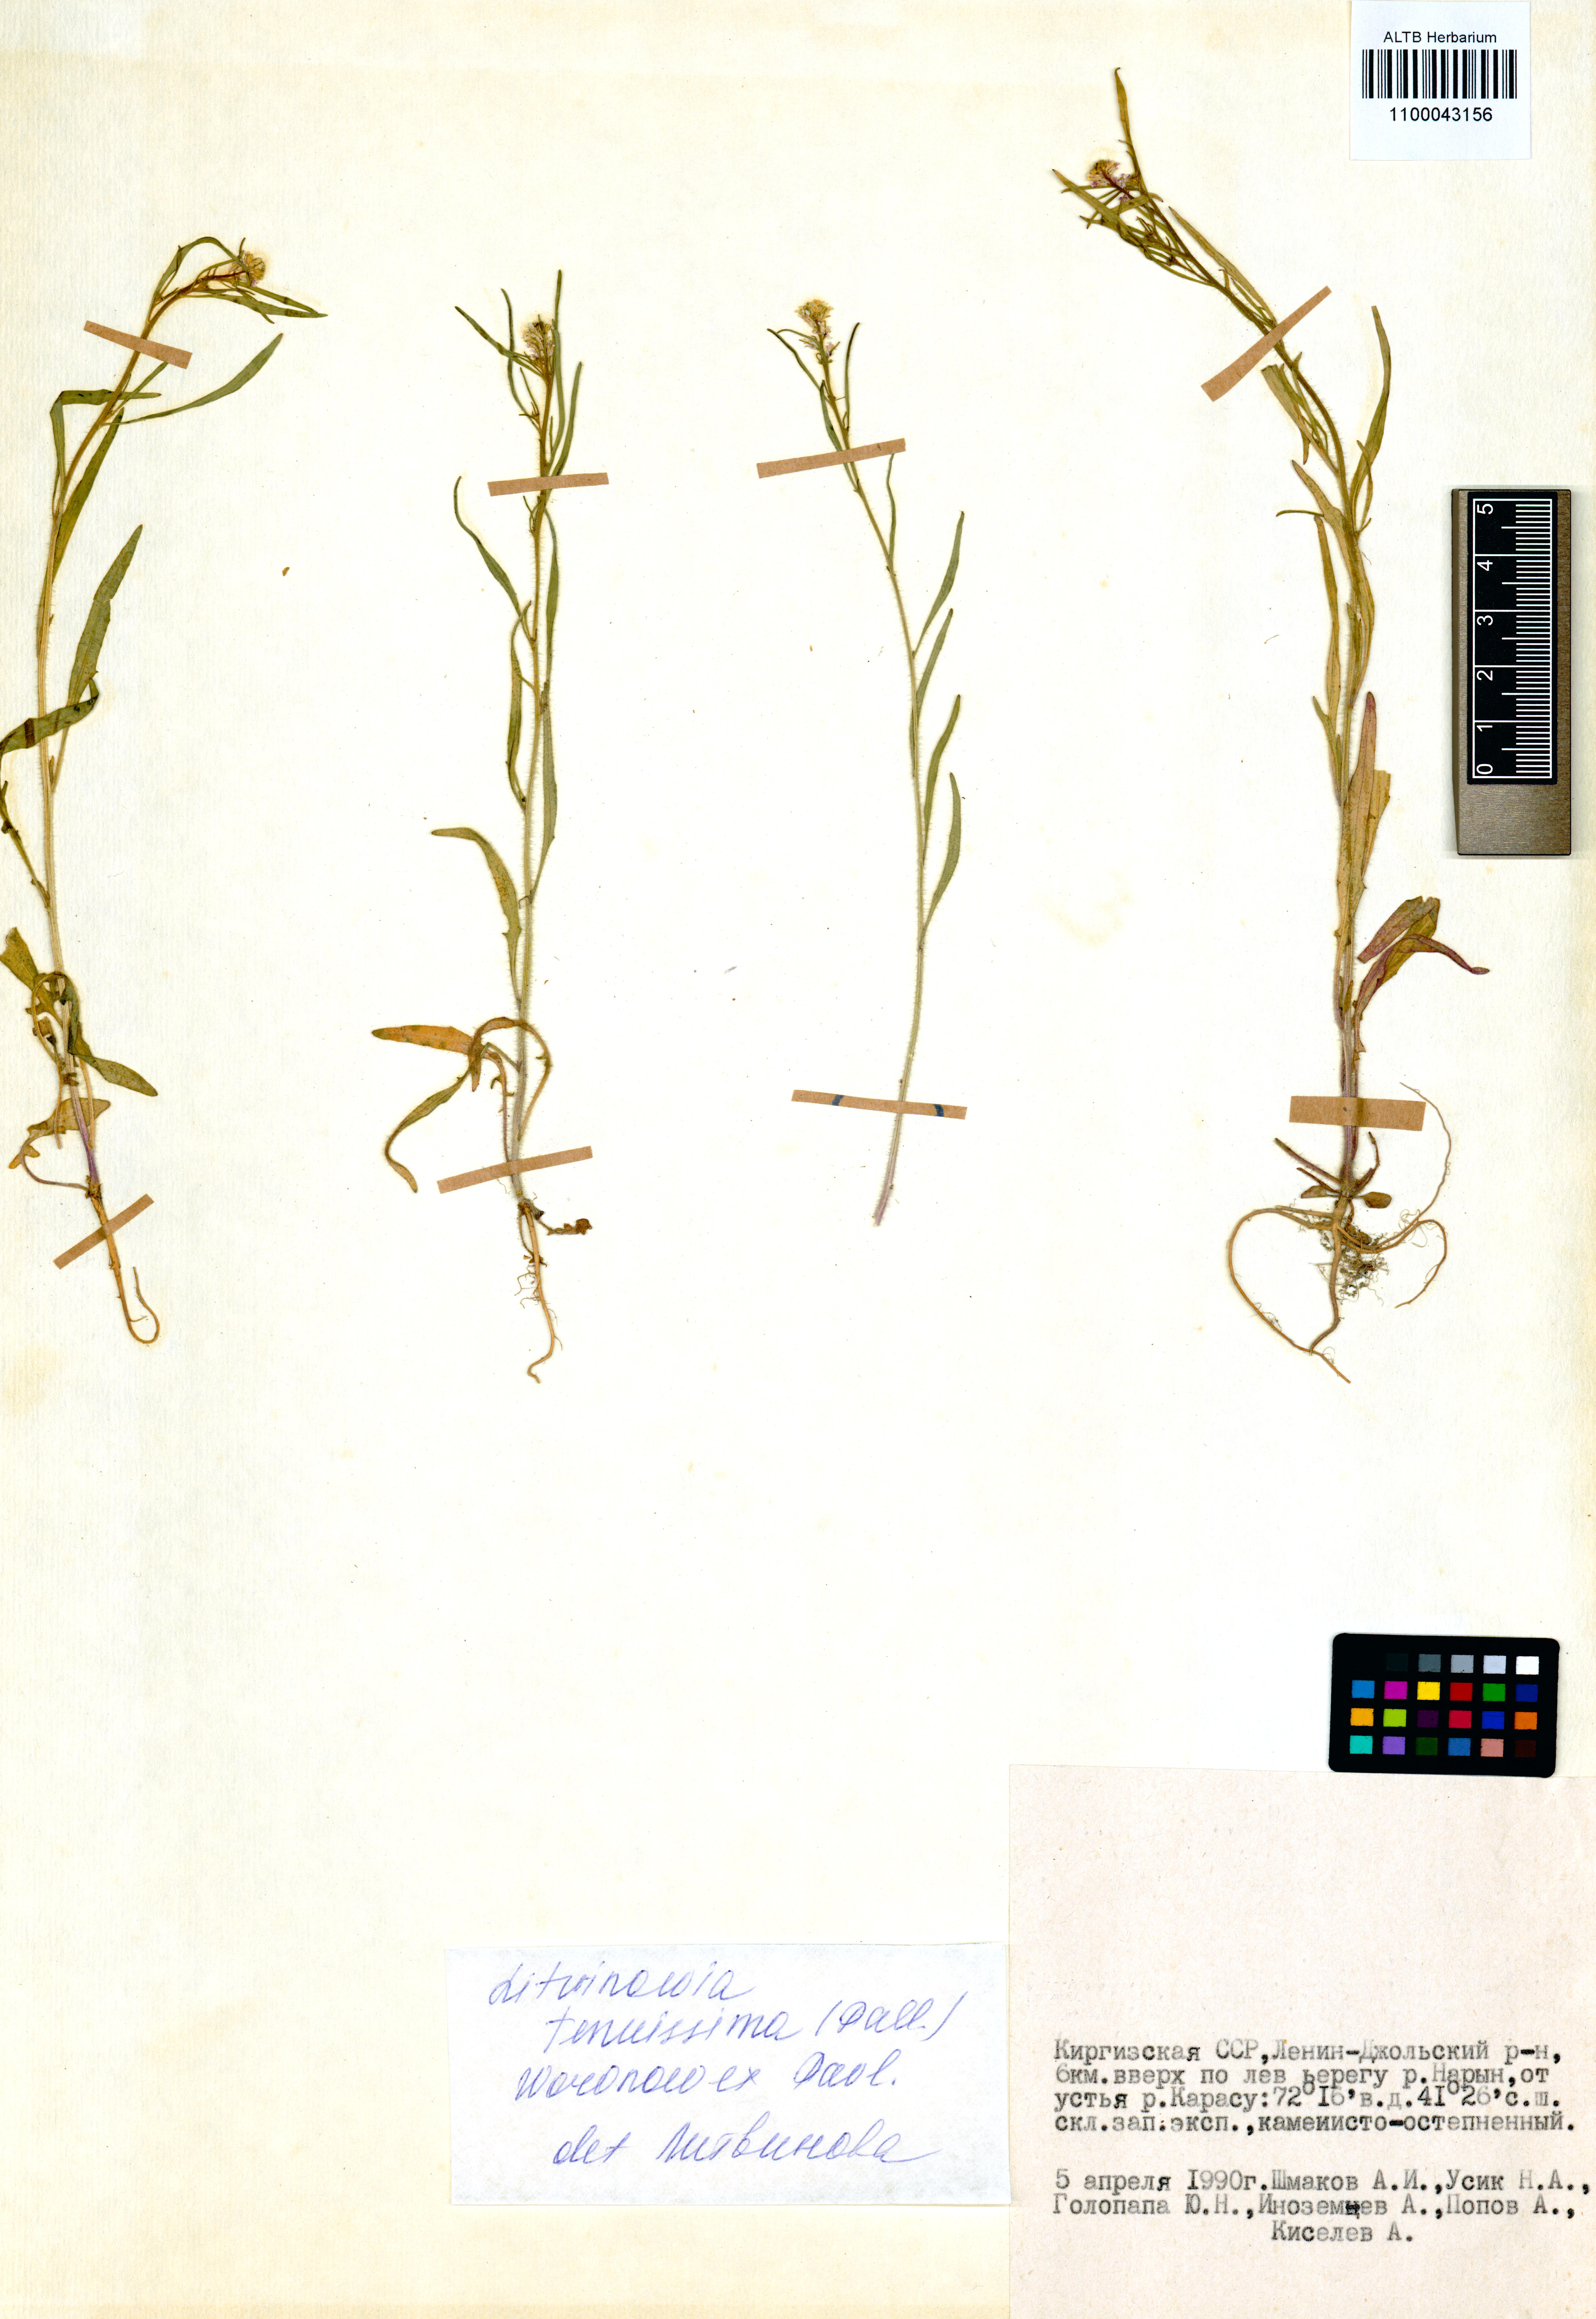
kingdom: Plantae
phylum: Tracheophyta
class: Magnoliopsida
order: Brassicales
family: Brassicaceae
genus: Litwinowia
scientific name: Litwinowia tenuissima
